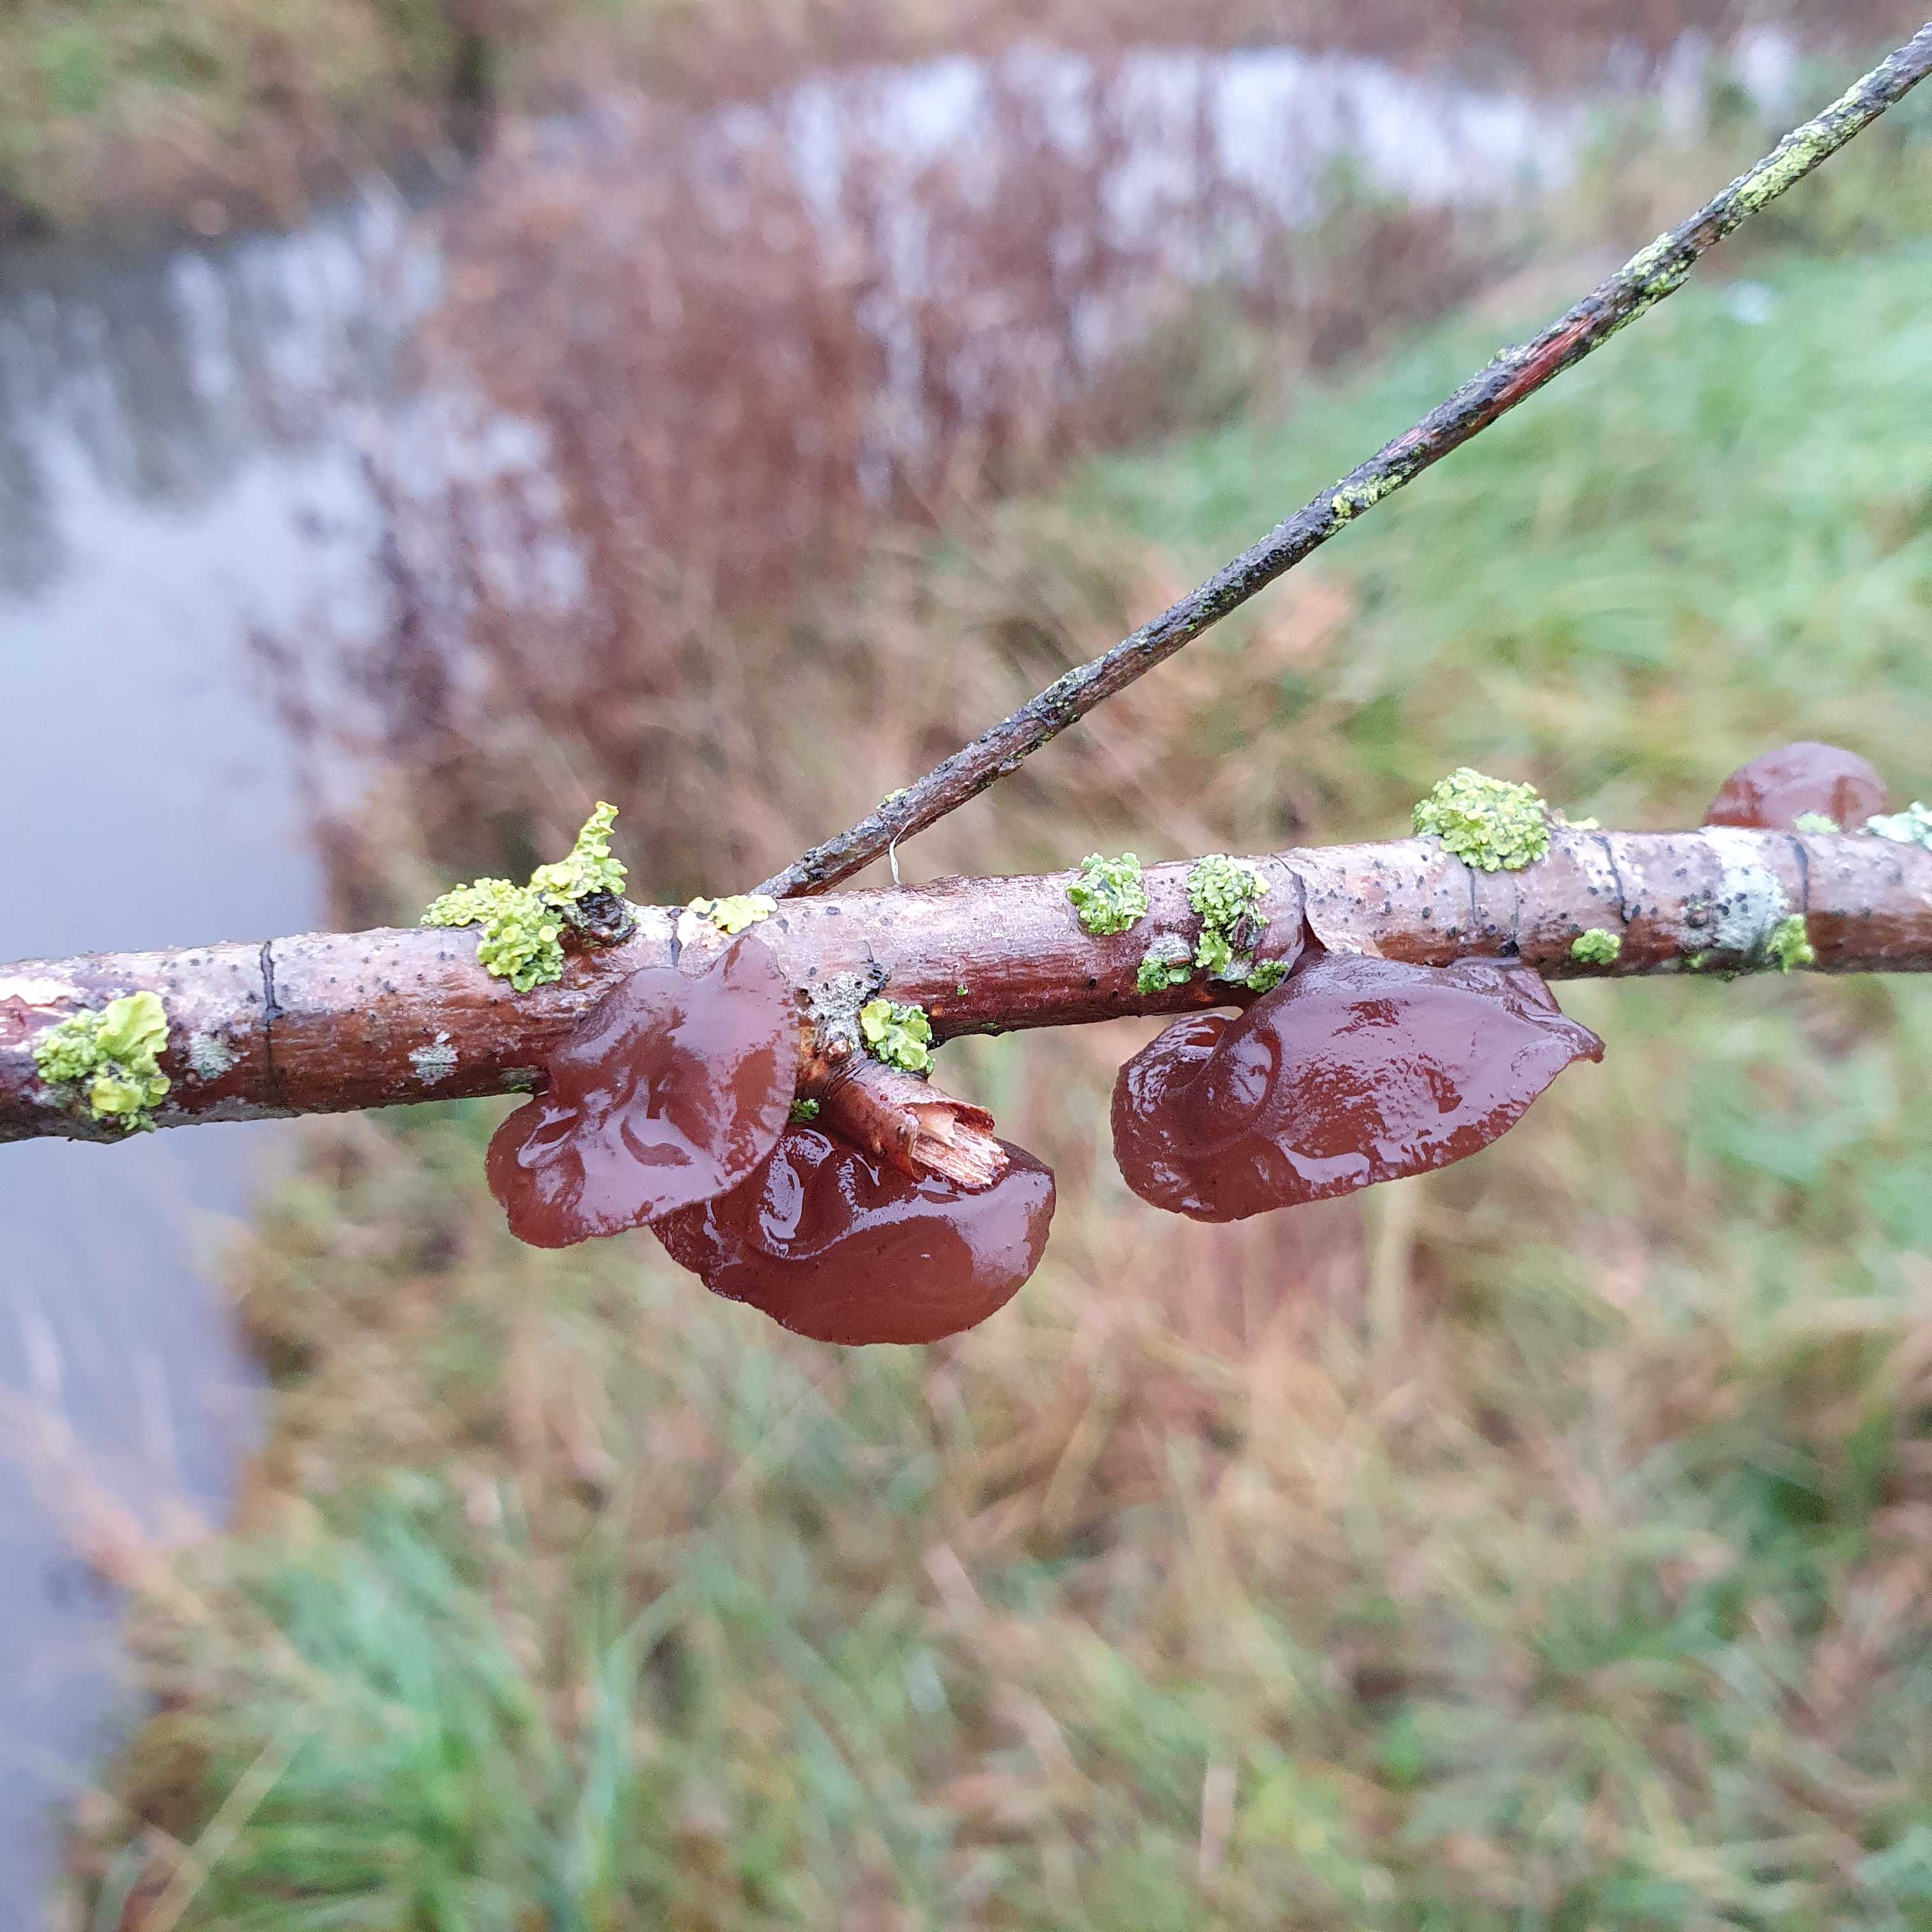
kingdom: Fungi
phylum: Basidiomycota
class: Agaricomycetes
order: Auriculariales
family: Auriculariaceae
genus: Exidia
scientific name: Exidia recisa
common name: pile-bævretop
